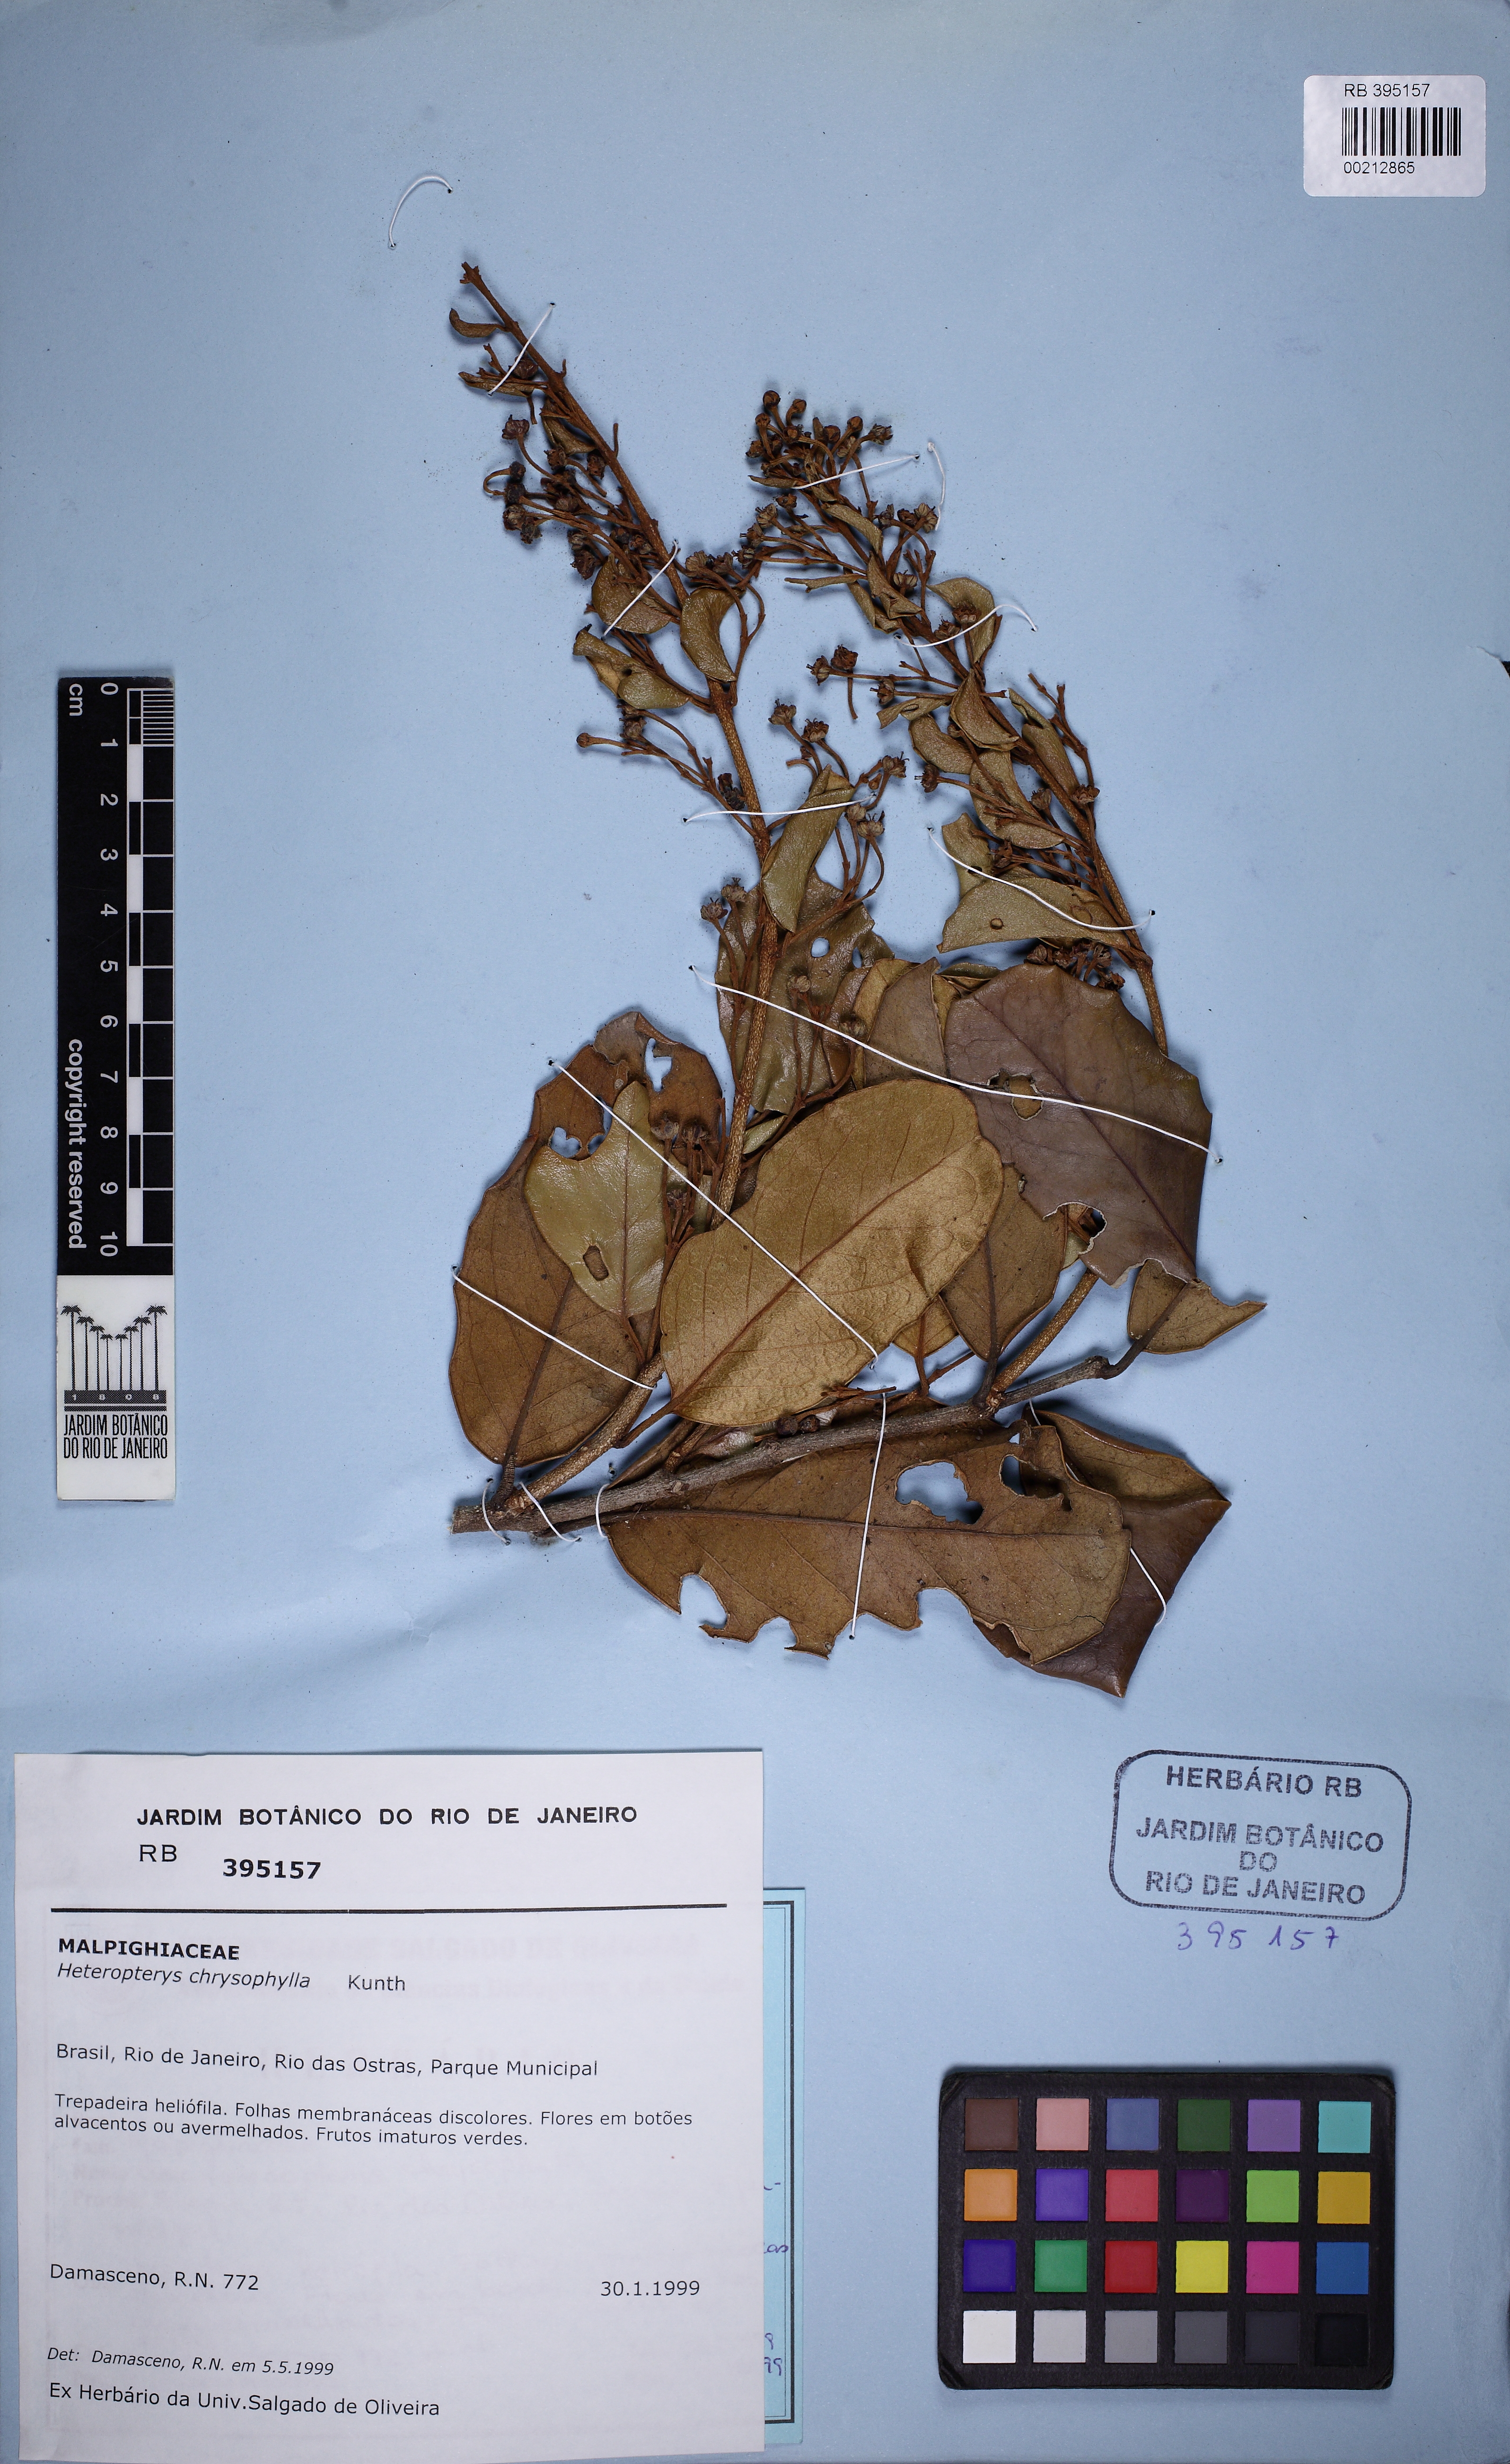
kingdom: Plantae
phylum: Tracheophyta
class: Magnoliopsida
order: Malpighiales
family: Malpighiaceae
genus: Heteropterys
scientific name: Heteropterys chrysophylla
